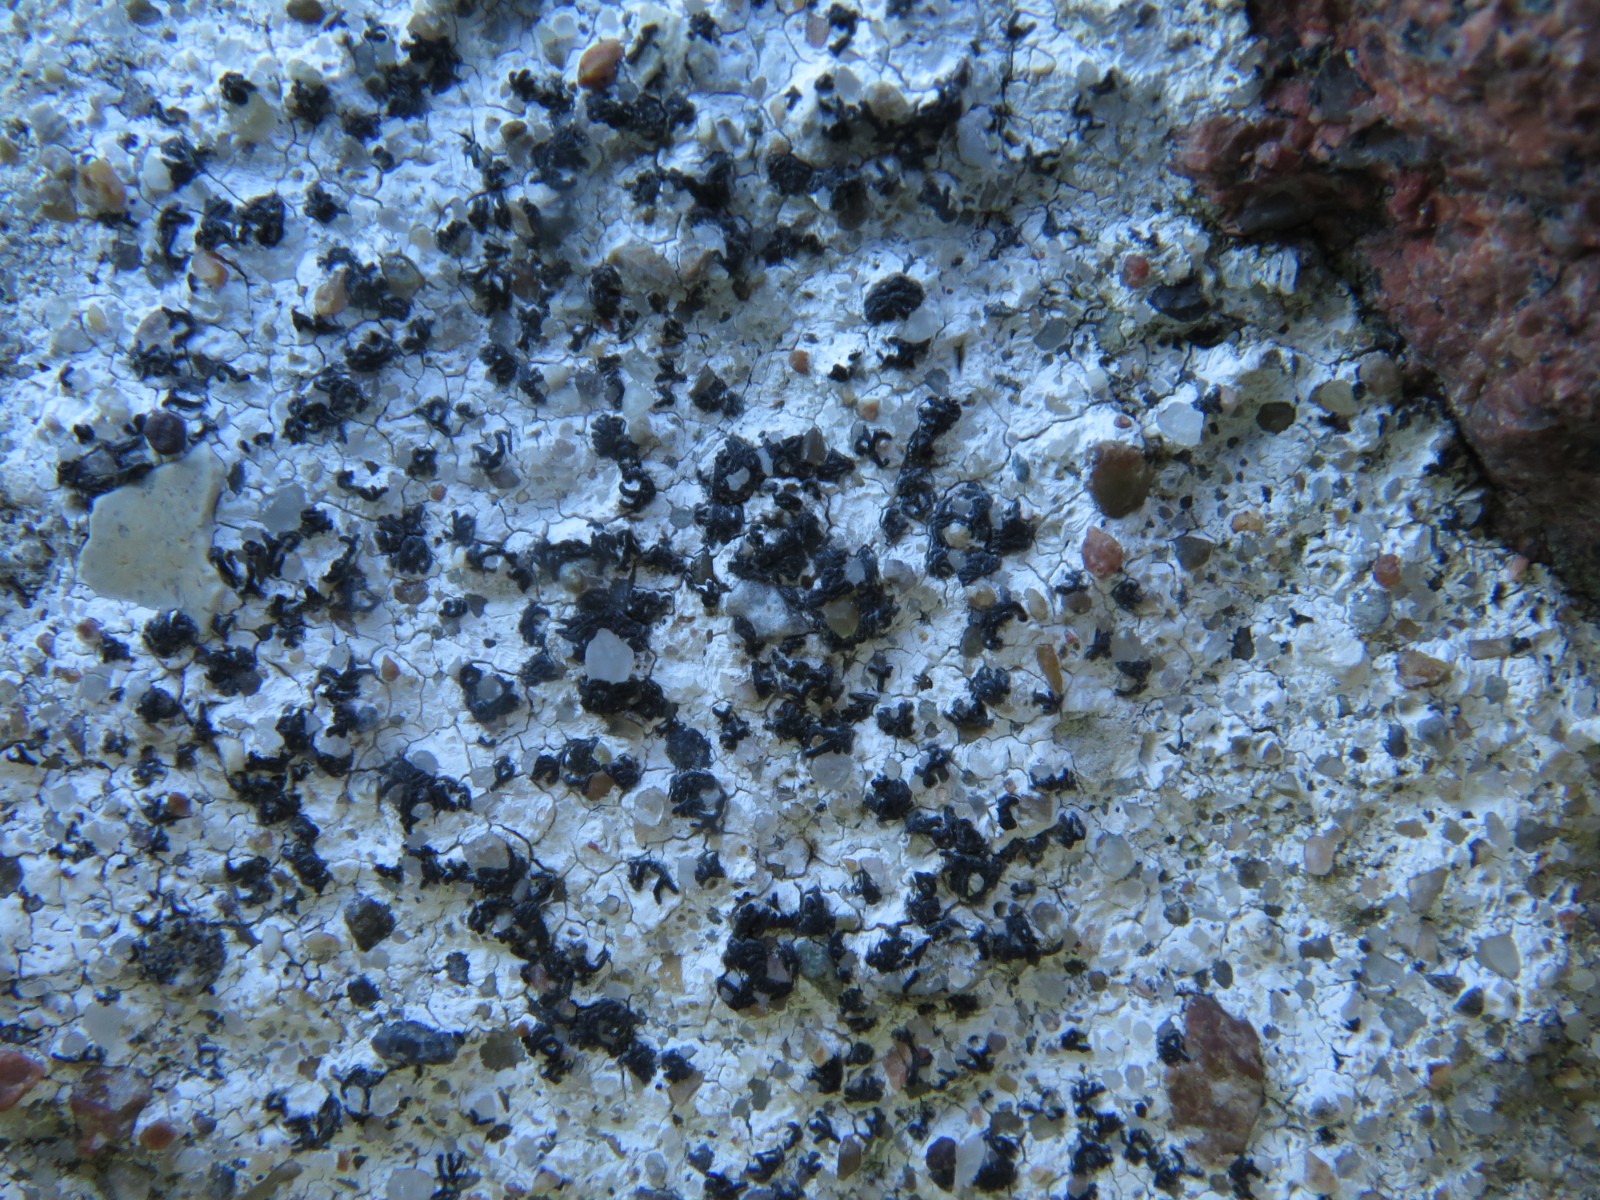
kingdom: Fungi
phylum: Ascomycota
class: Arthoniomycetes
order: Arthoniales
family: Arthoniaceae
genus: Arthonia
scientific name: Arthonia calcarea
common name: kalk-bogstavlav
